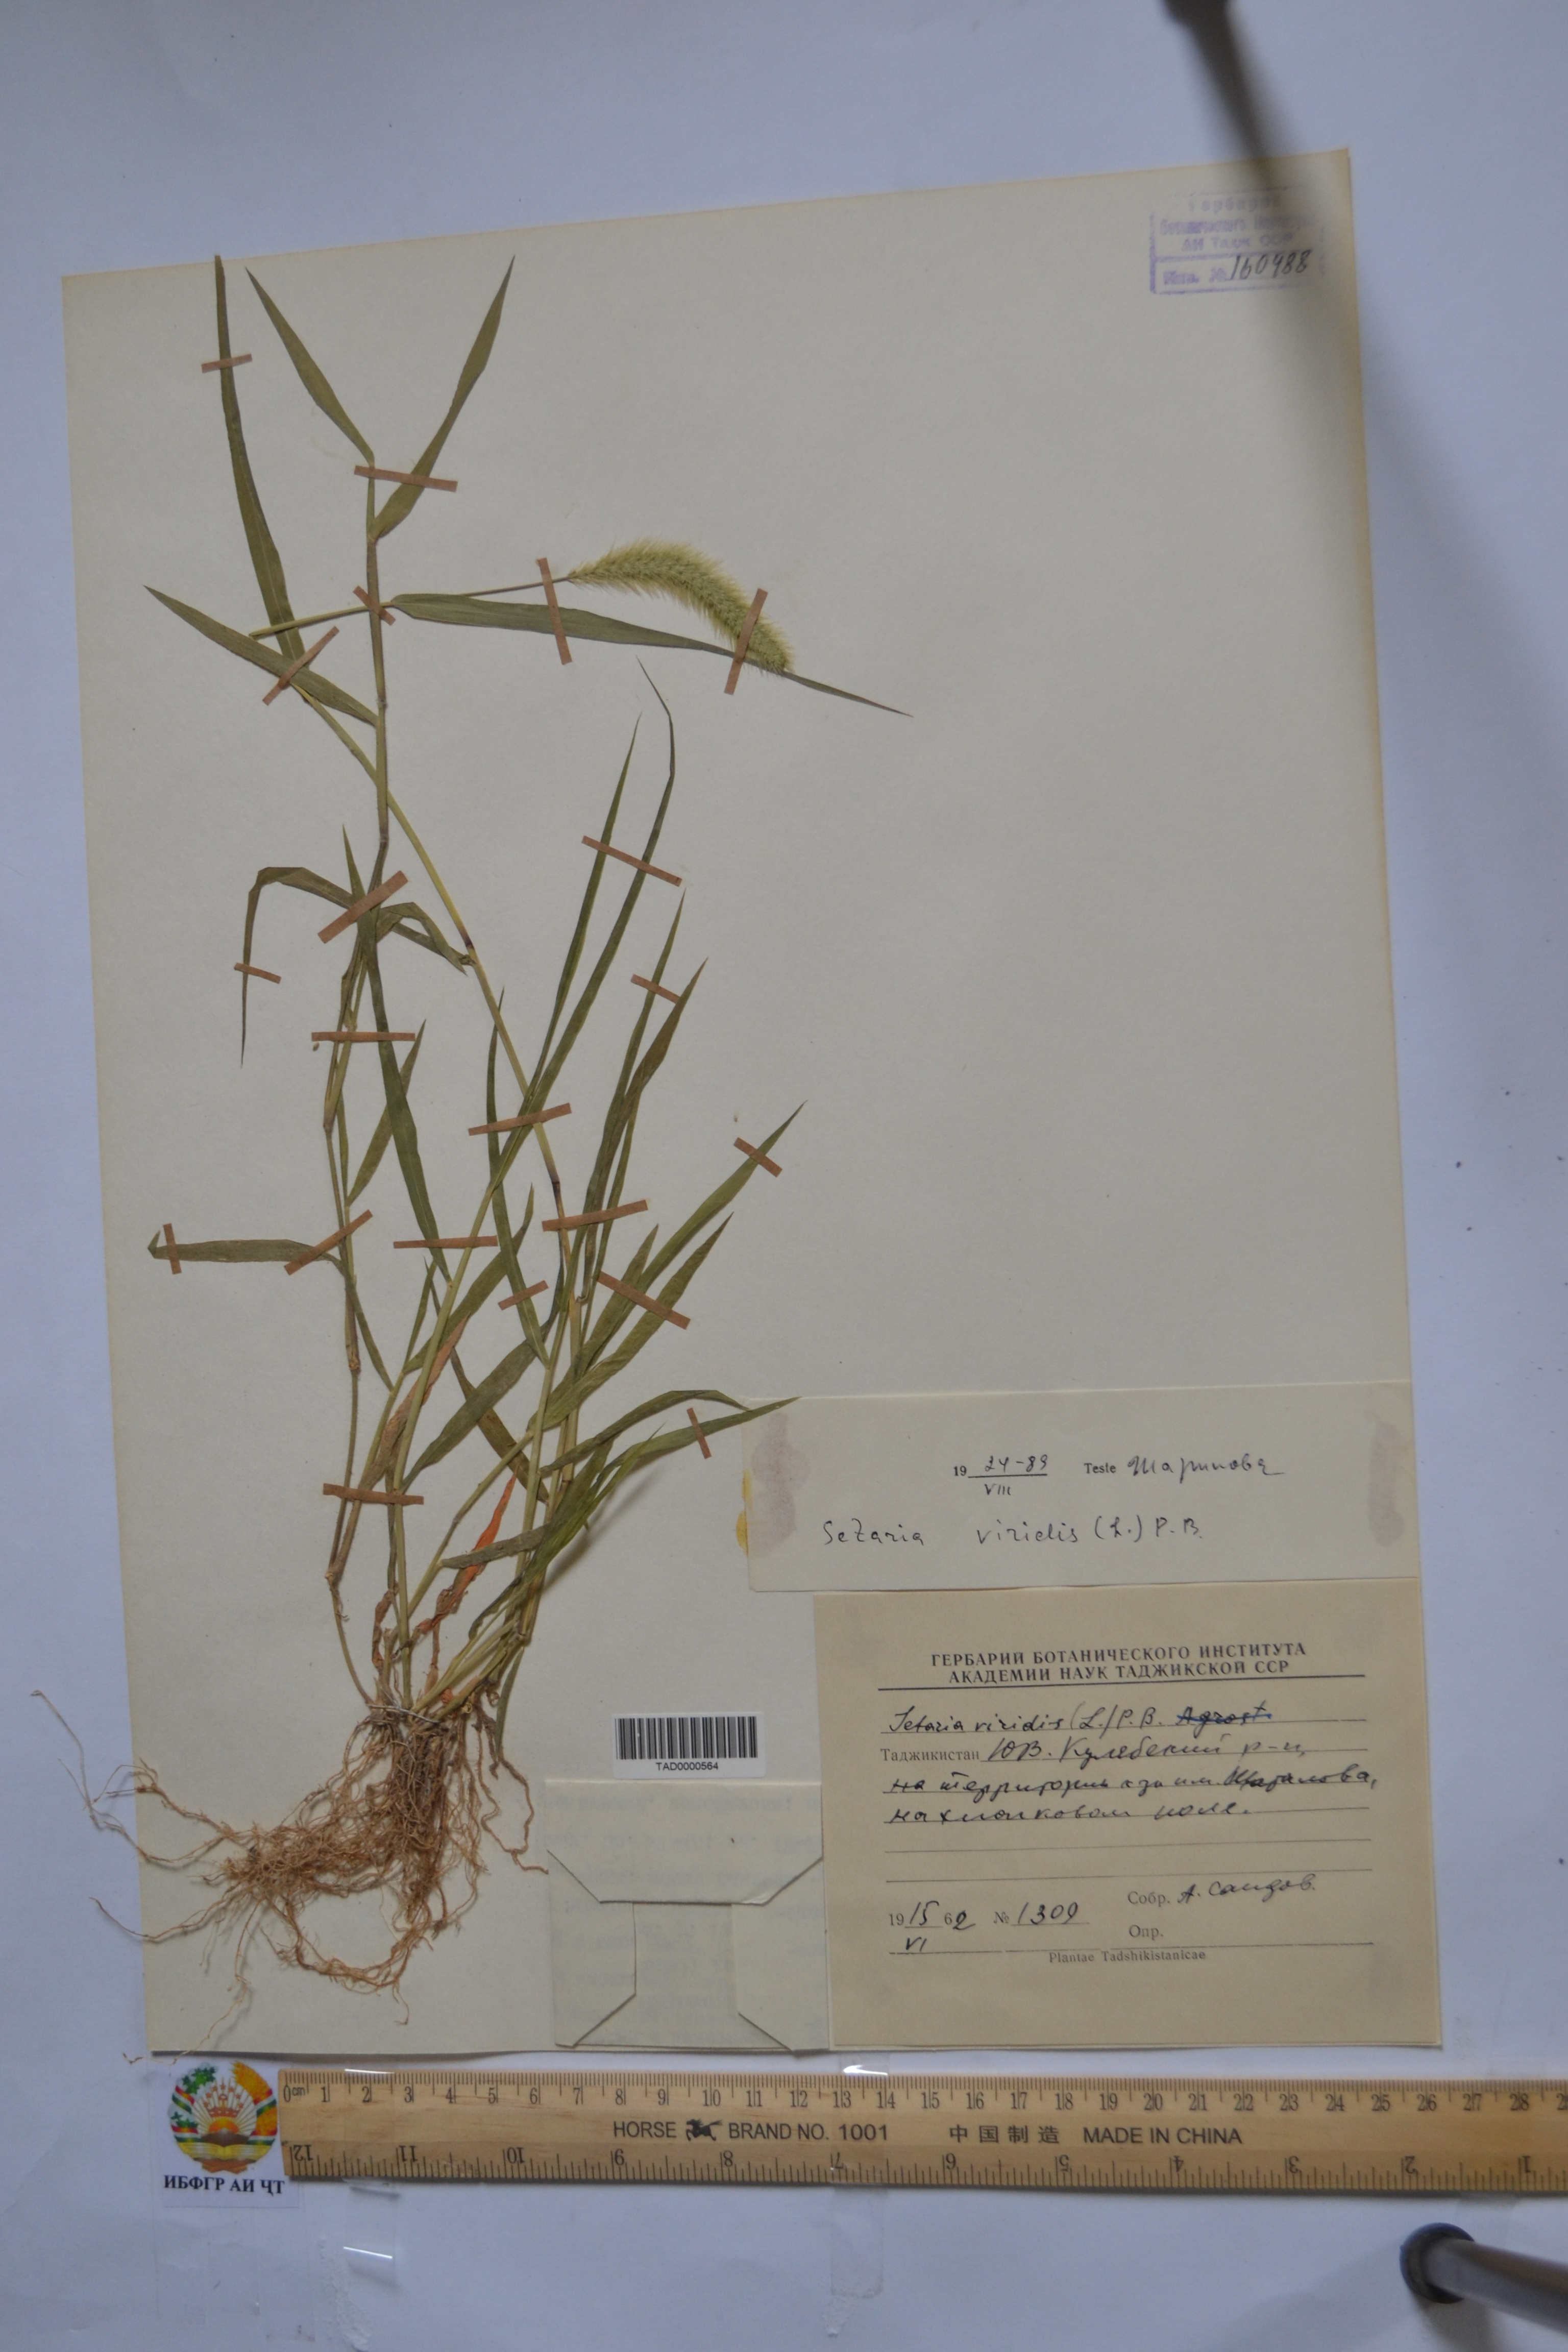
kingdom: Plantae
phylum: Tracheophyta
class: Liliopsida
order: Poales
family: Poaceae
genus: Setaria
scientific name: Setaria viridis
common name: Green bristlegrass
